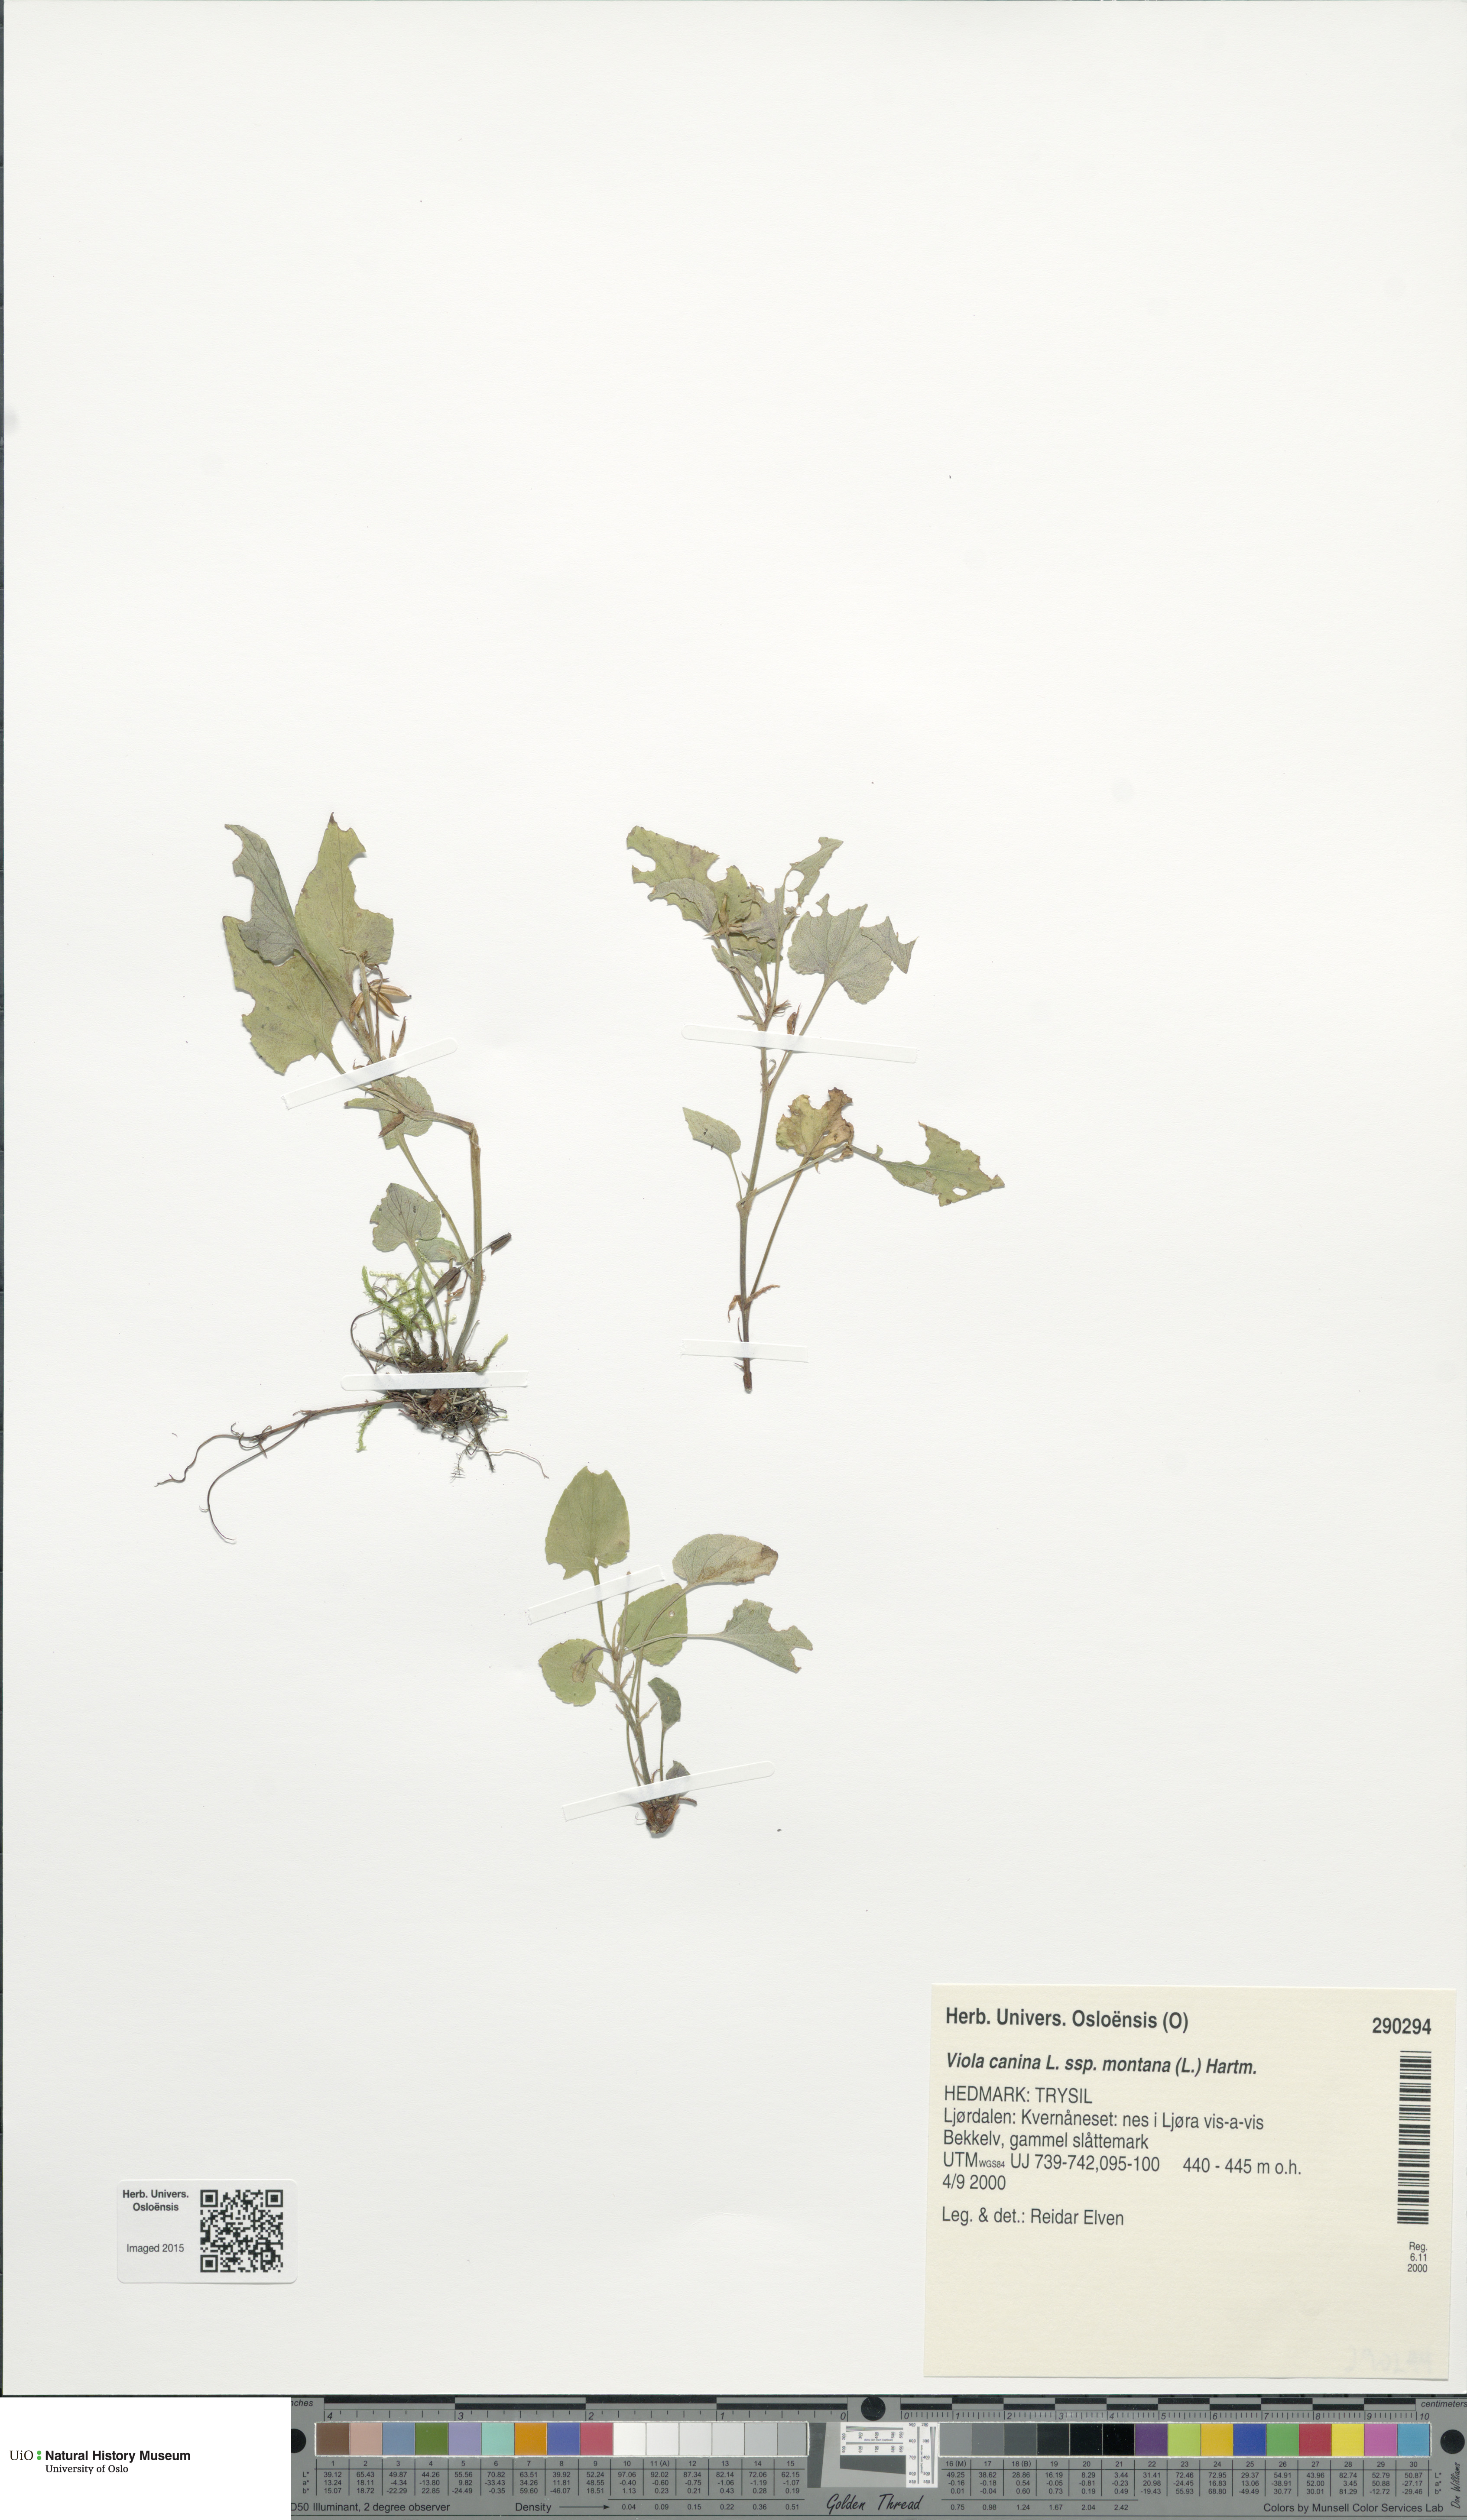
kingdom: Plantae
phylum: Tracheophyta
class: Magnoliopsida
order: Malpighiales
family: Violaceae
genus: Viola
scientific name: Viola ruppii
